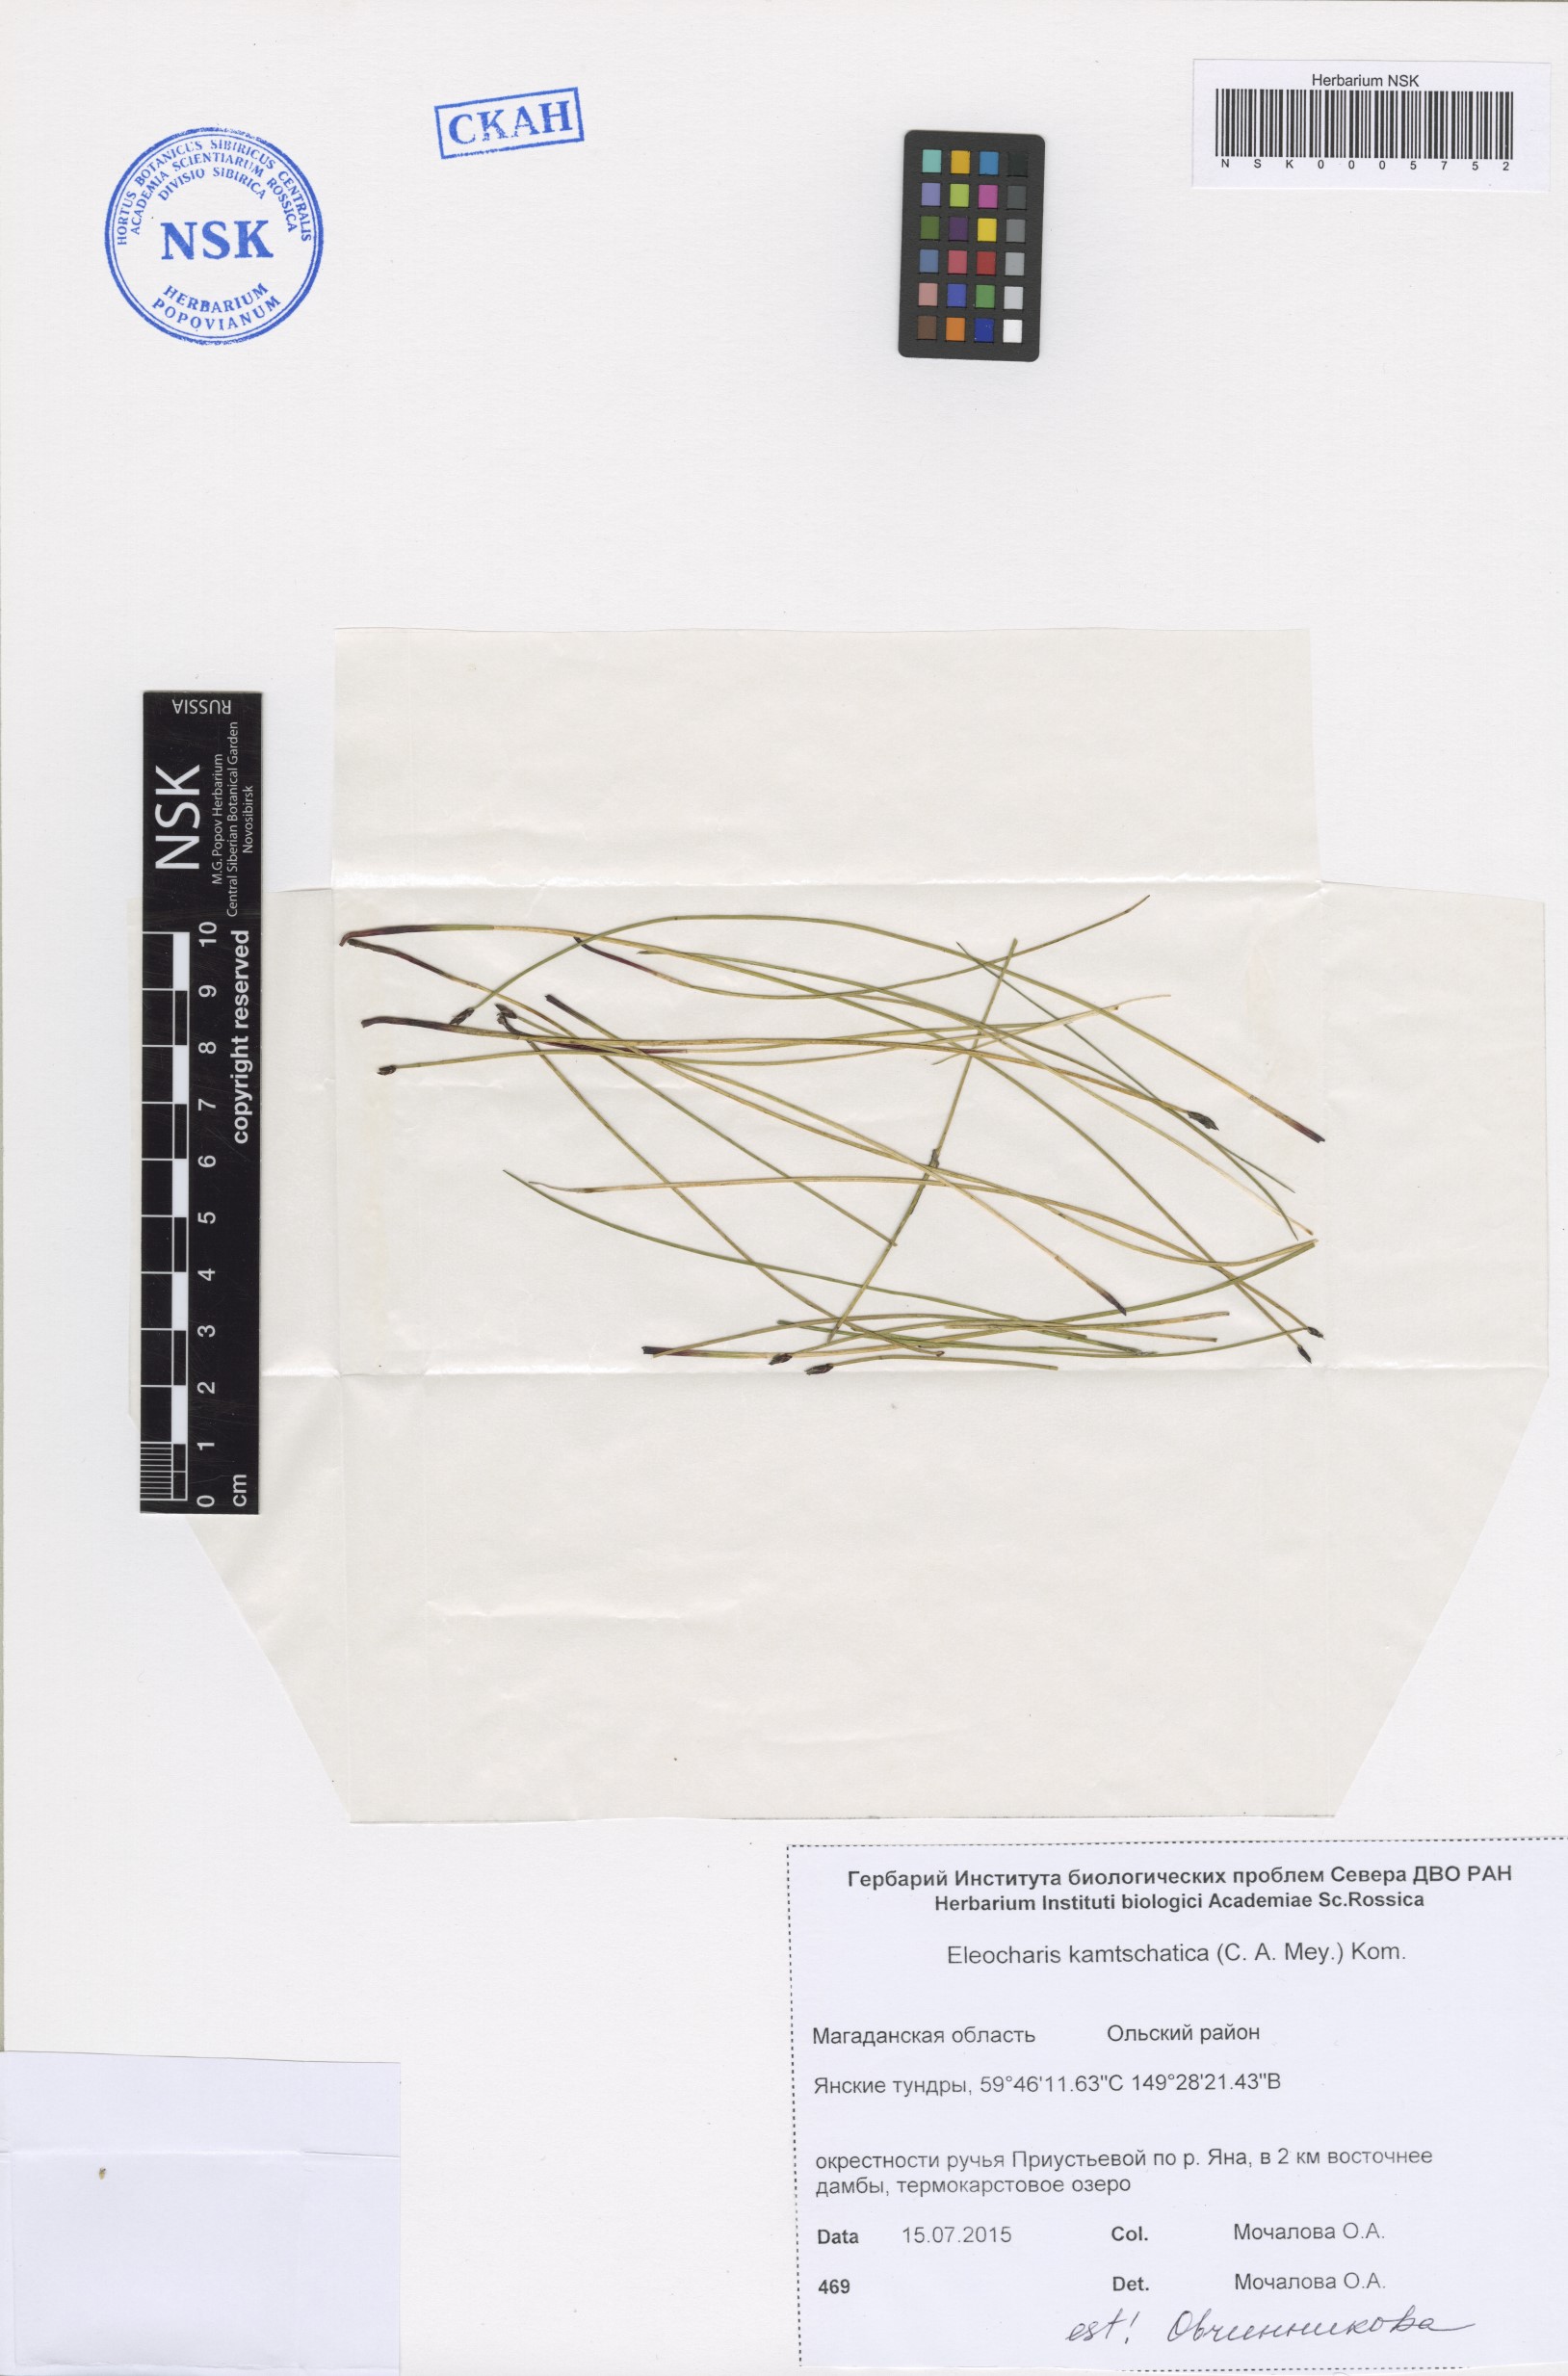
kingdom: Plantae
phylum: Tracheophyta
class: Liliopsida
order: Poales
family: Cyperaceae
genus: Eleocharis
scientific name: Eleocharis kamtschatica
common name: Kamchatka spikerush
